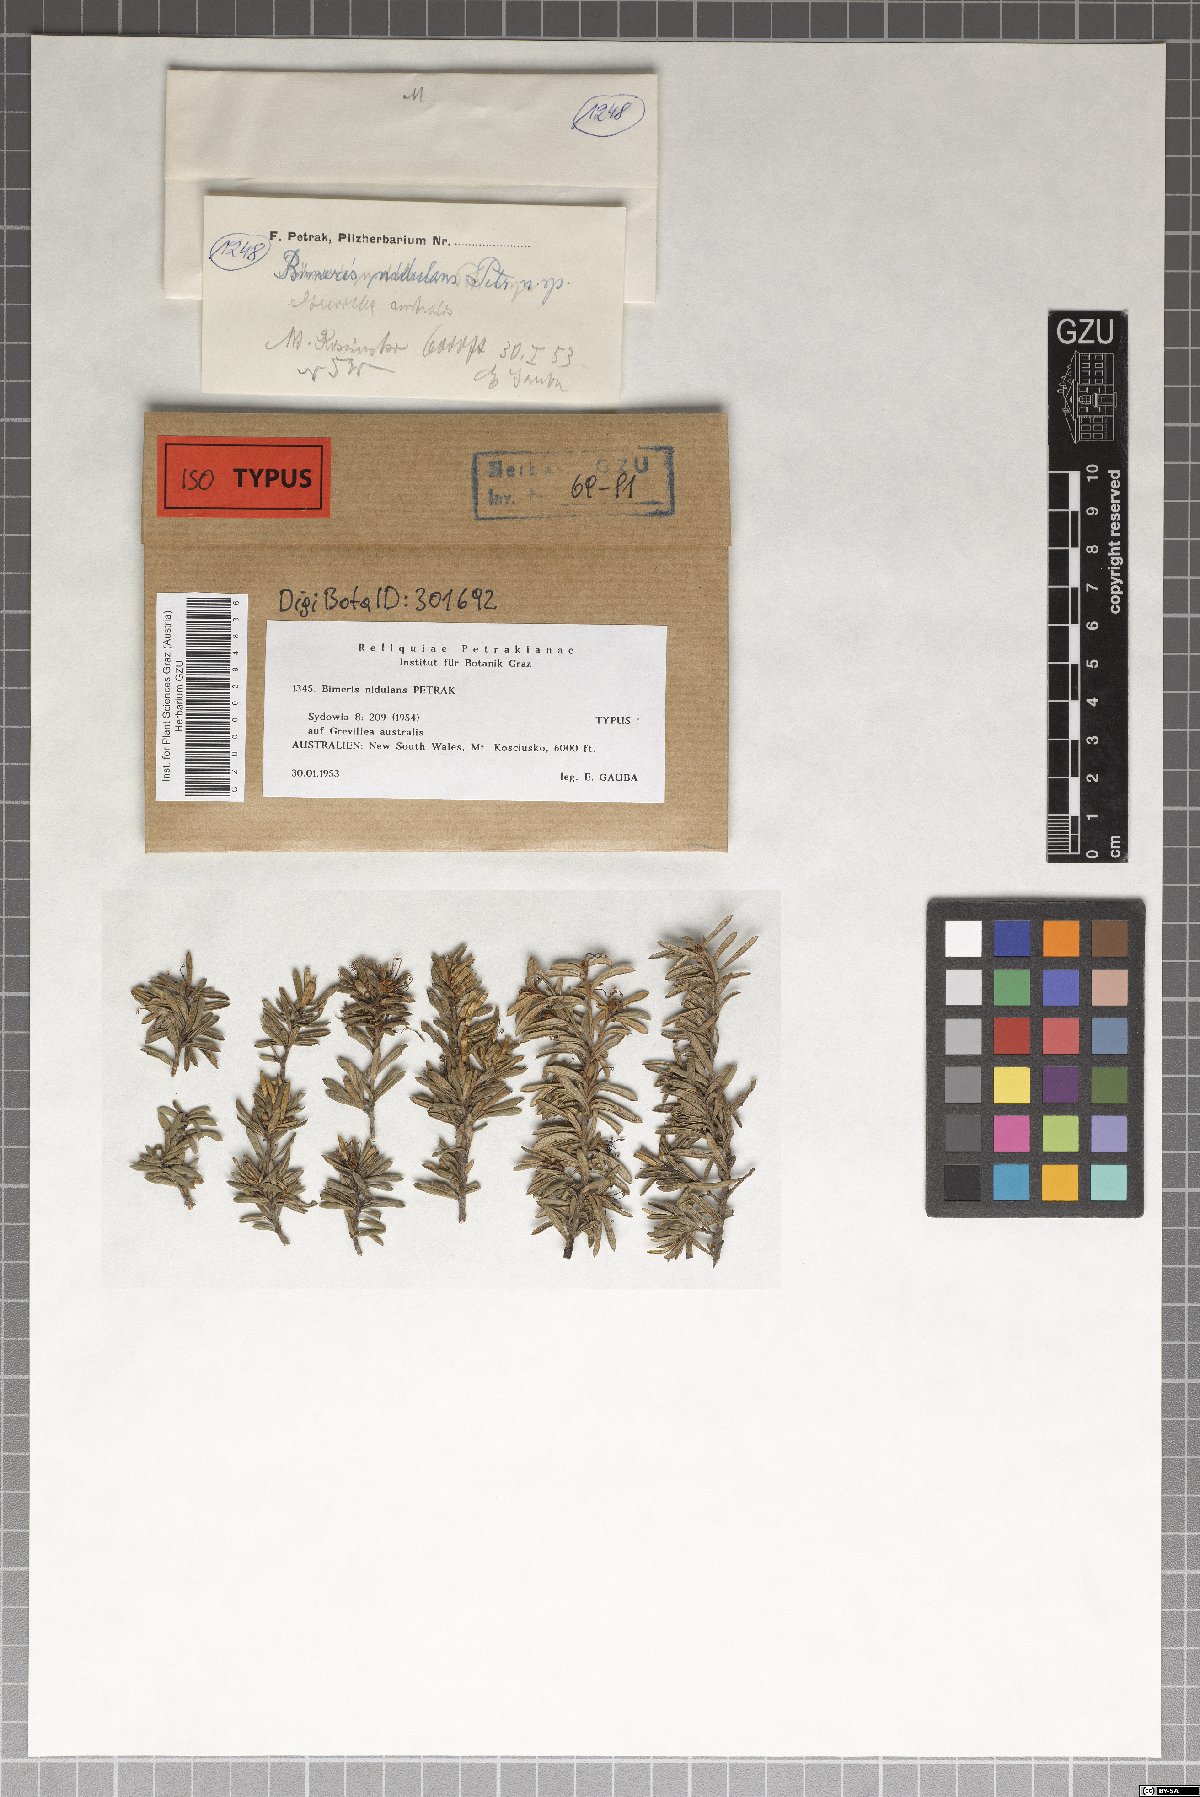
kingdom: Fungi
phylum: Ascomycota
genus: Bimeris
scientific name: Bimeris nidulans
